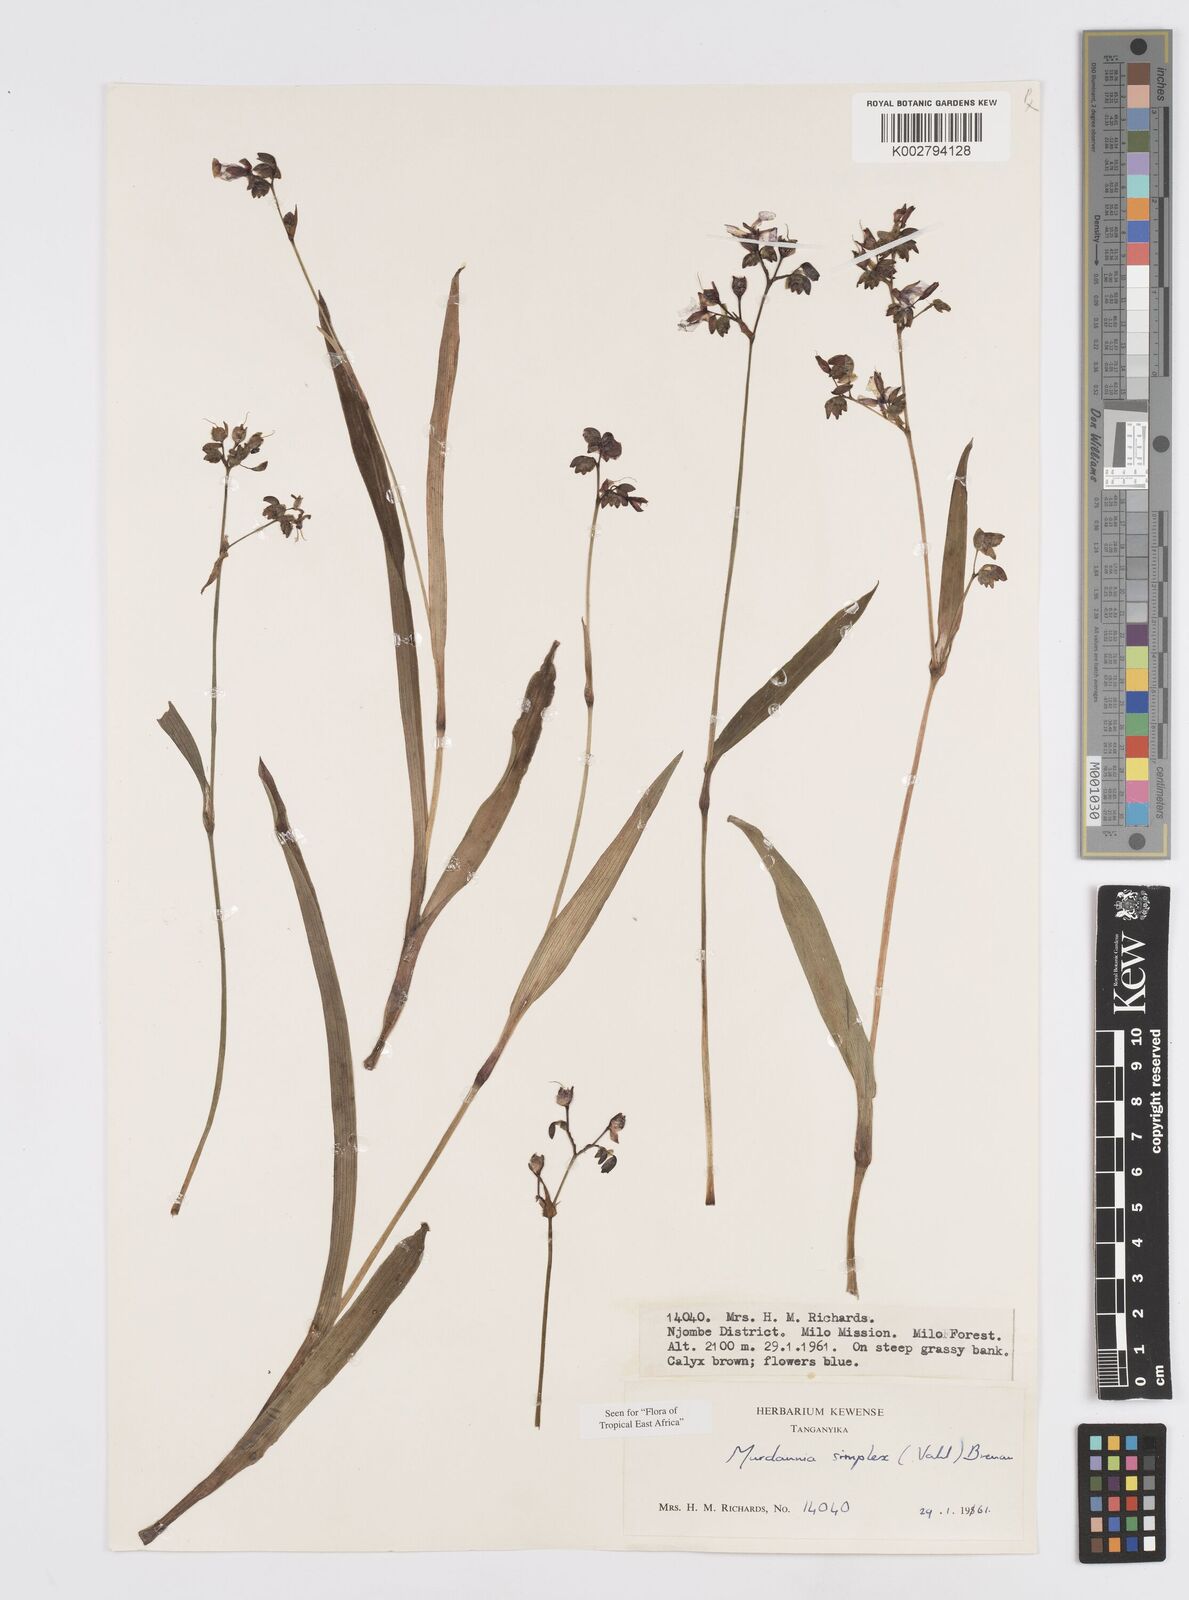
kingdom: Plantae
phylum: Tracheophyta
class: Liliopsida
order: Commelinales
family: Commelinaceae
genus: Murdannia
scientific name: Murdannia simplex
